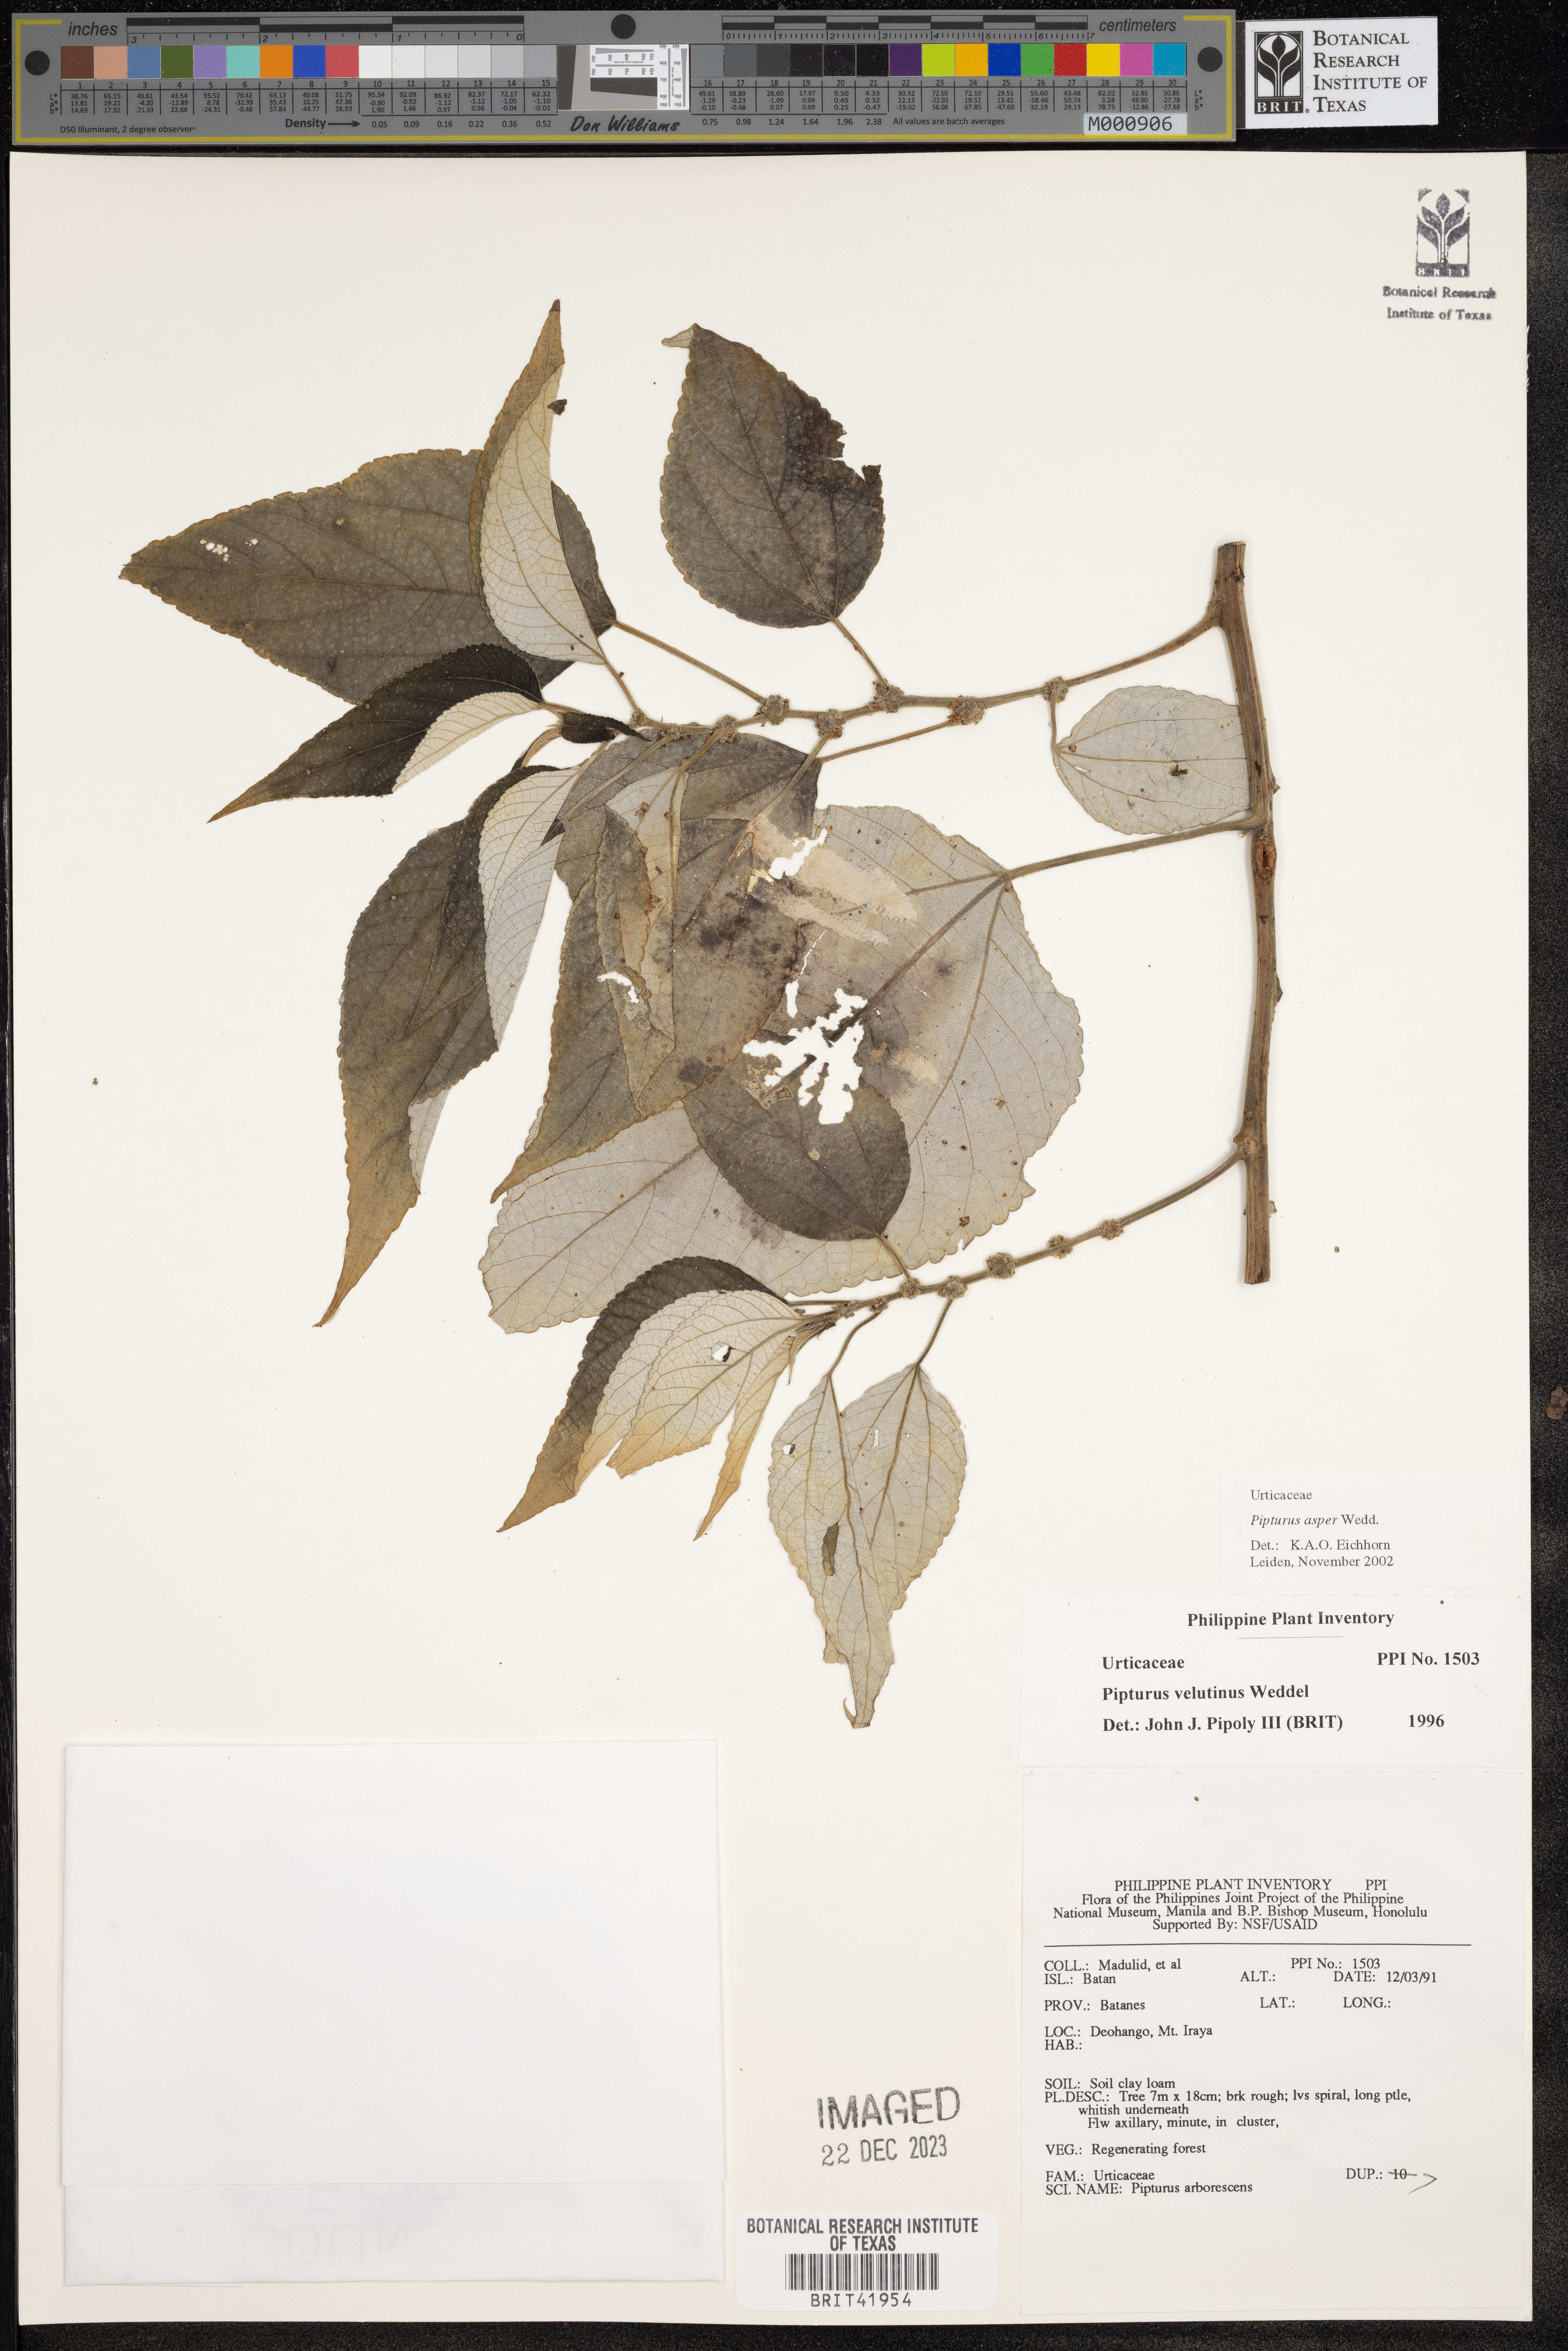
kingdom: Plantae
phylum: Tracheophyta
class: Magnoliopsida
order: Rosales
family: Urticaceae
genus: Pipturus
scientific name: Pipturus arborescens
